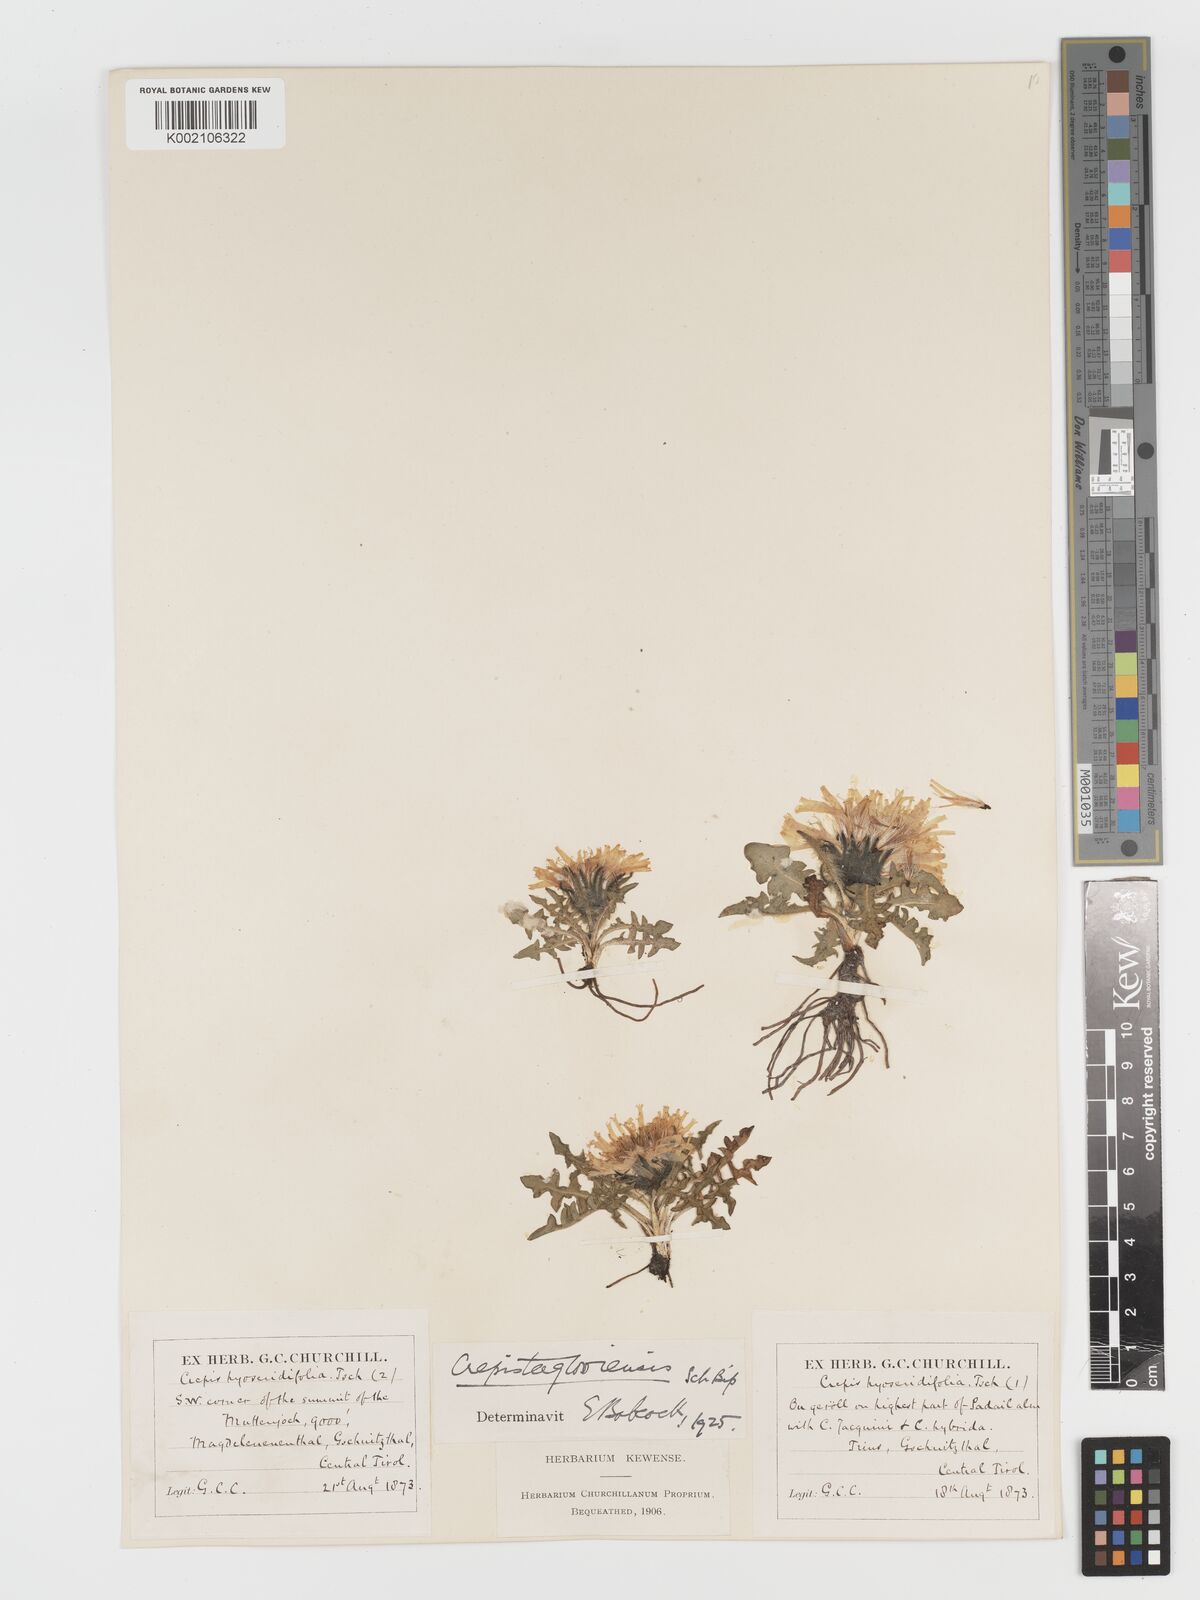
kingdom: Plantae
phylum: Tracheophyta
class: Magnoliopsida
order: Asterales
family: Asteraceae
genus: Crepis
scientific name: Crepis terglouensis
